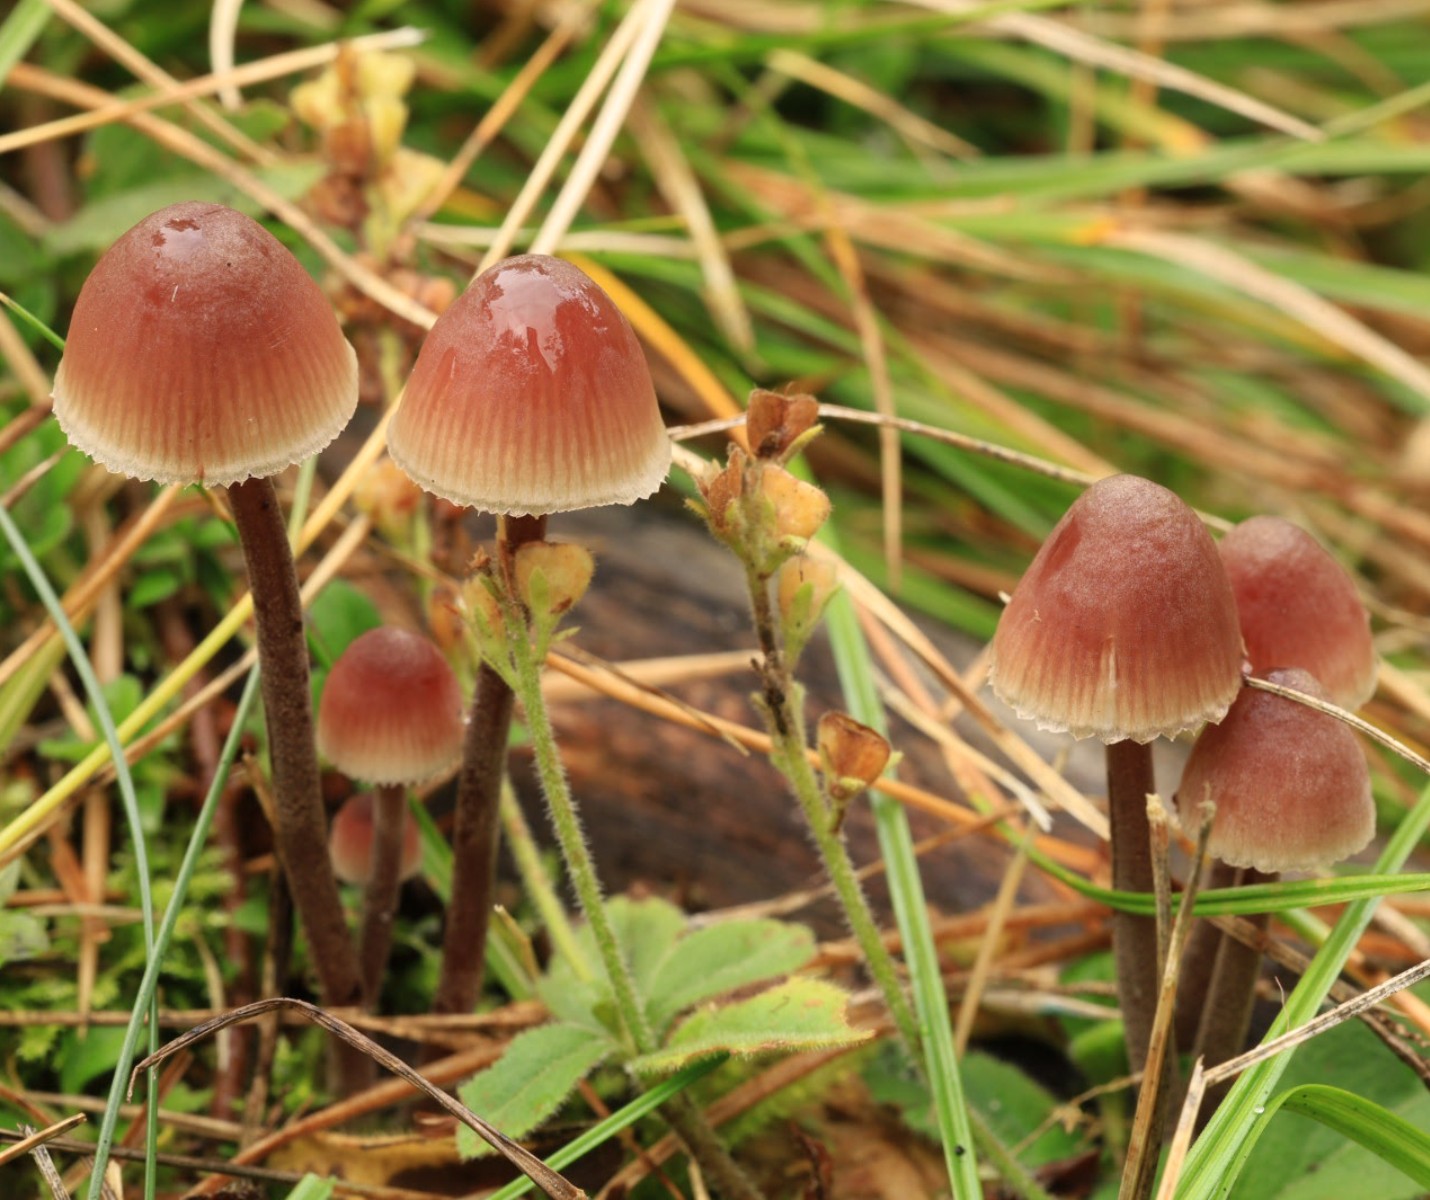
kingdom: Fungi
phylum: Basidiomycota
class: Agaricomycetes
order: Agaricales
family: Mycenaceae
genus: Mycena
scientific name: Mycena haematopus
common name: blødende huesvamp
